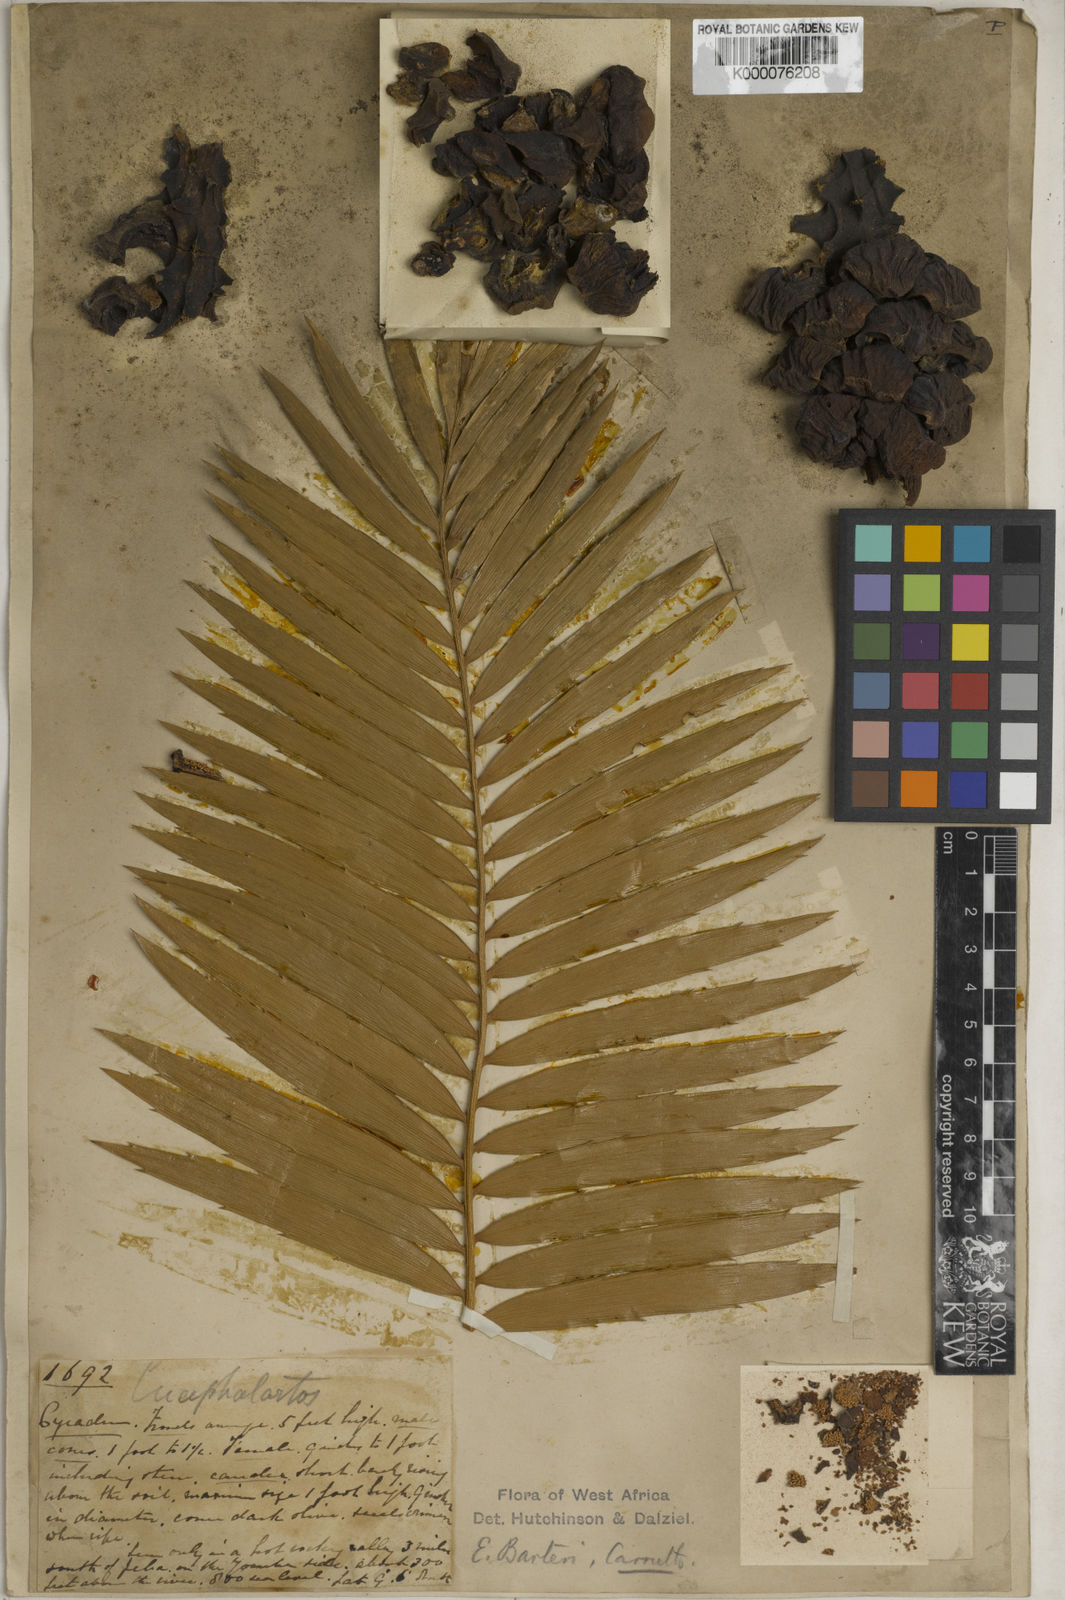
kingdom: Plantae
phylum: Tracheophyta
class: Cycadopsida
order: Cycadales
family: Zamiaceae
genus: Encephalartos
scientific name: Encephalartos barteri
